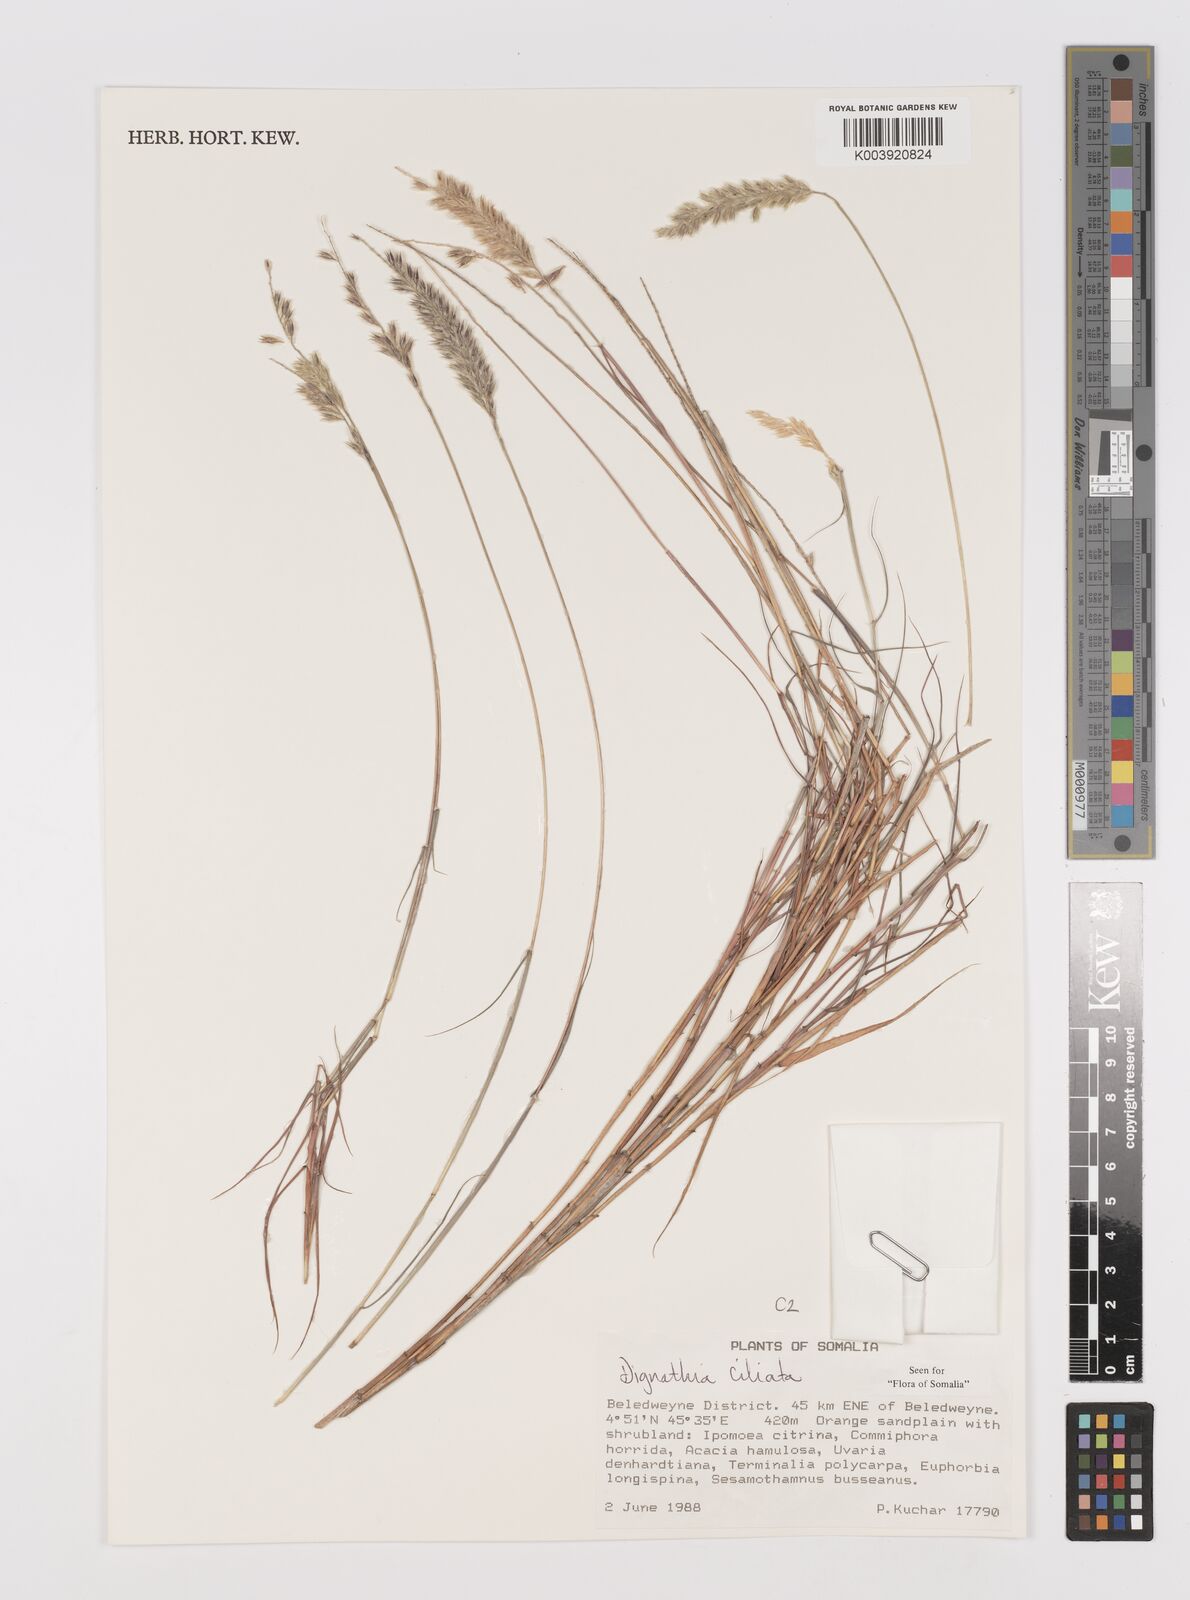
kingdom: Plantae
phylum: Tracheophyta
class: Liliopsida
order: Poales
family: Poaceae
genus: Dignathia
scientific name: Dignathia ciliata
